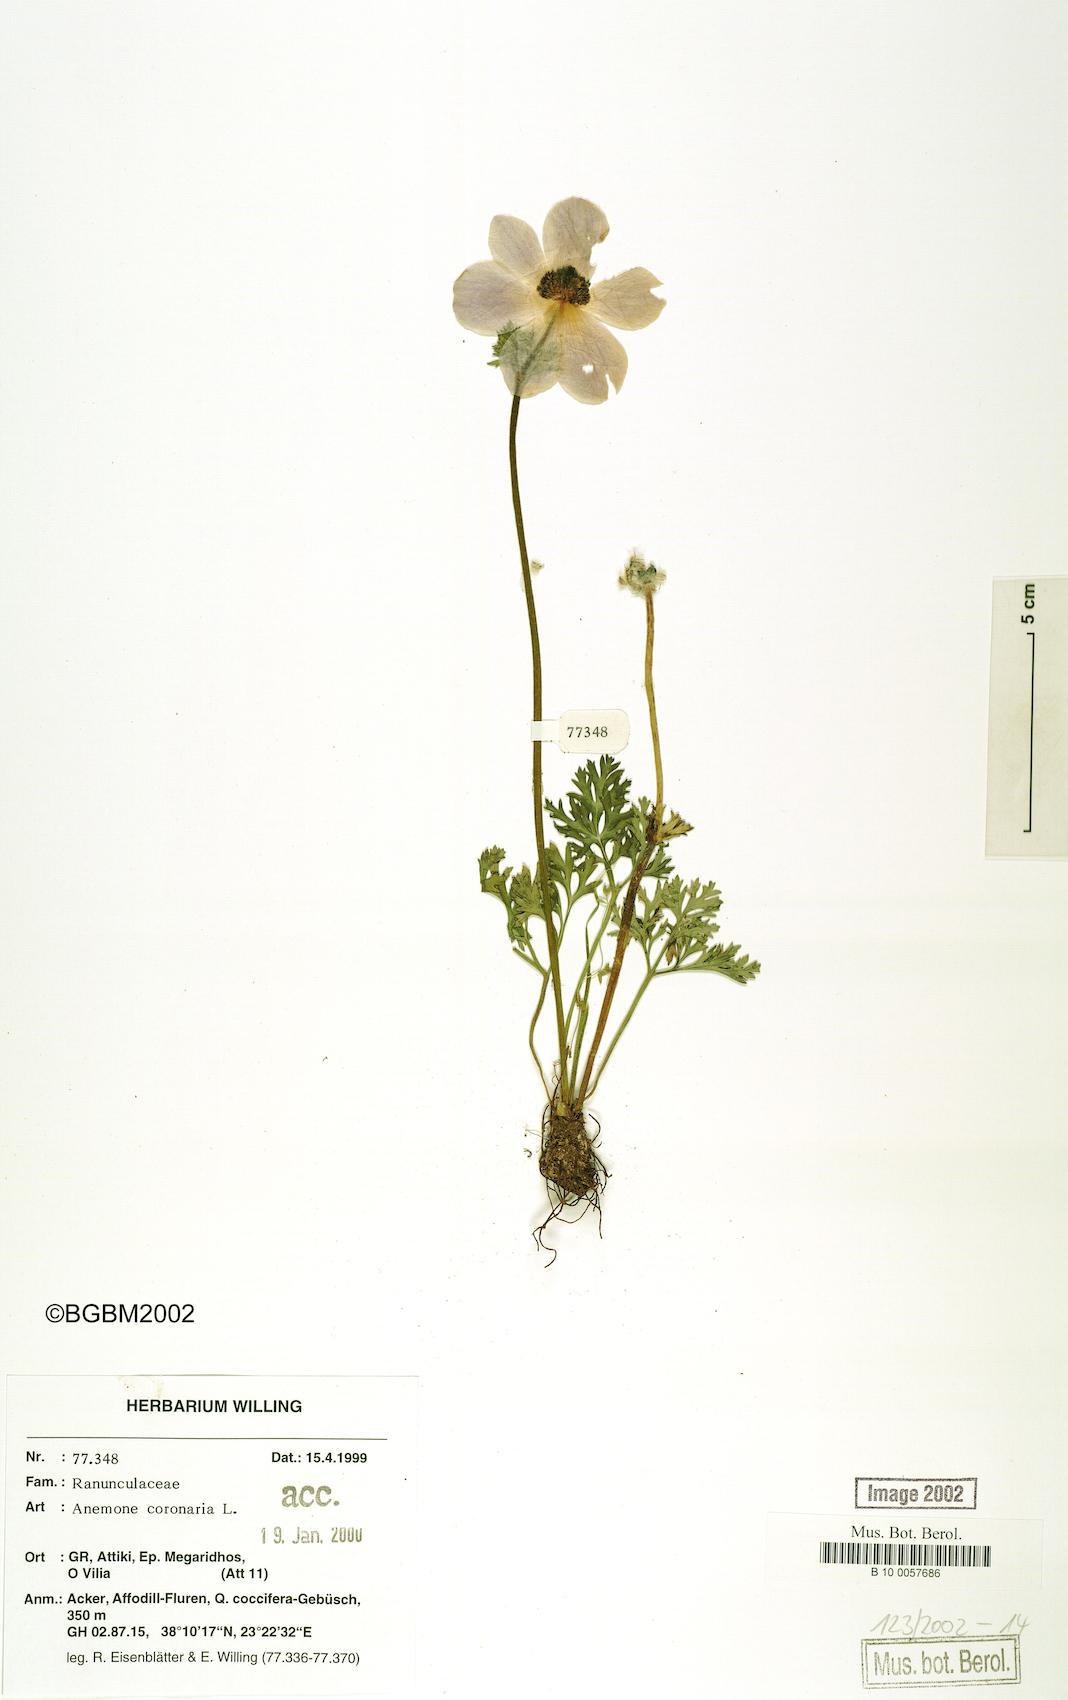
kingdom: Plantae
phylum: Tracheophyta
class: Magnoliopsida
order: Ranunculales
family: Ranunculaceae
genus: Anemone
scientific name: Anemone coronaria
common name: Poppy anemone
